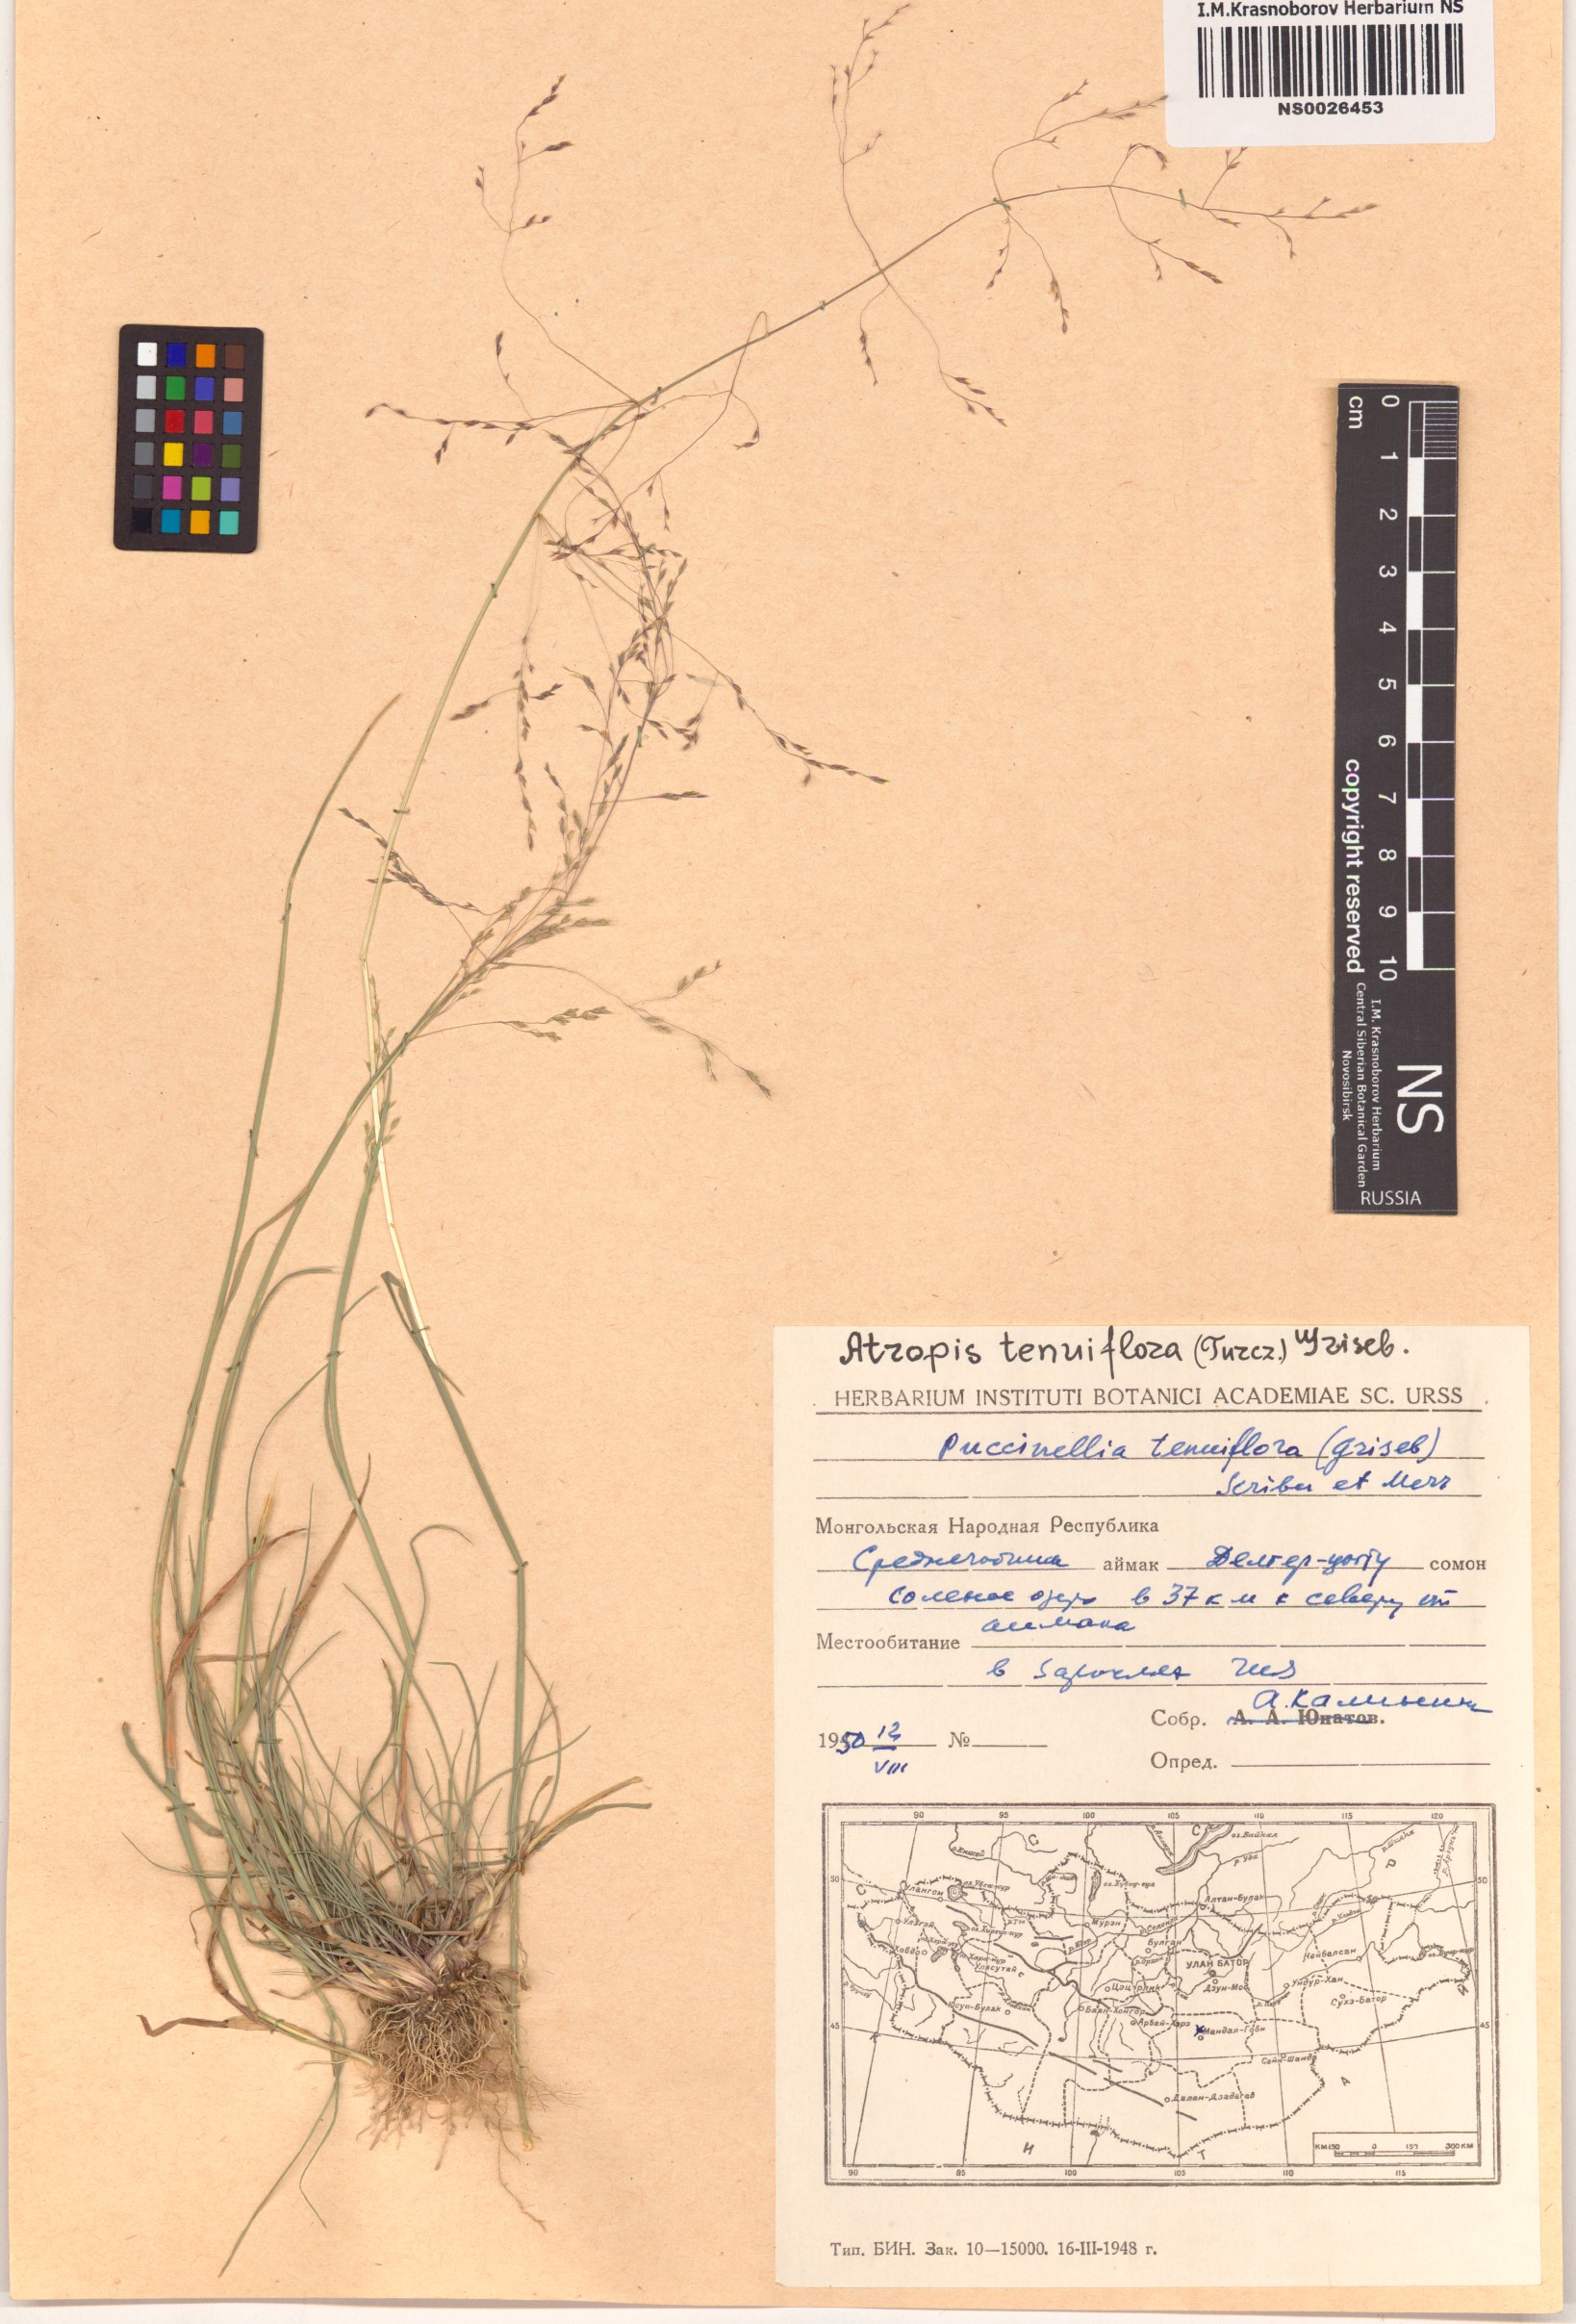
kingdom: Plantae
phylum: Tracheophyta
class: Liliopsida
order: Poales
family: Poaceae
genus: Puccinellia
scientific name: Puccinellia tenuiflora
